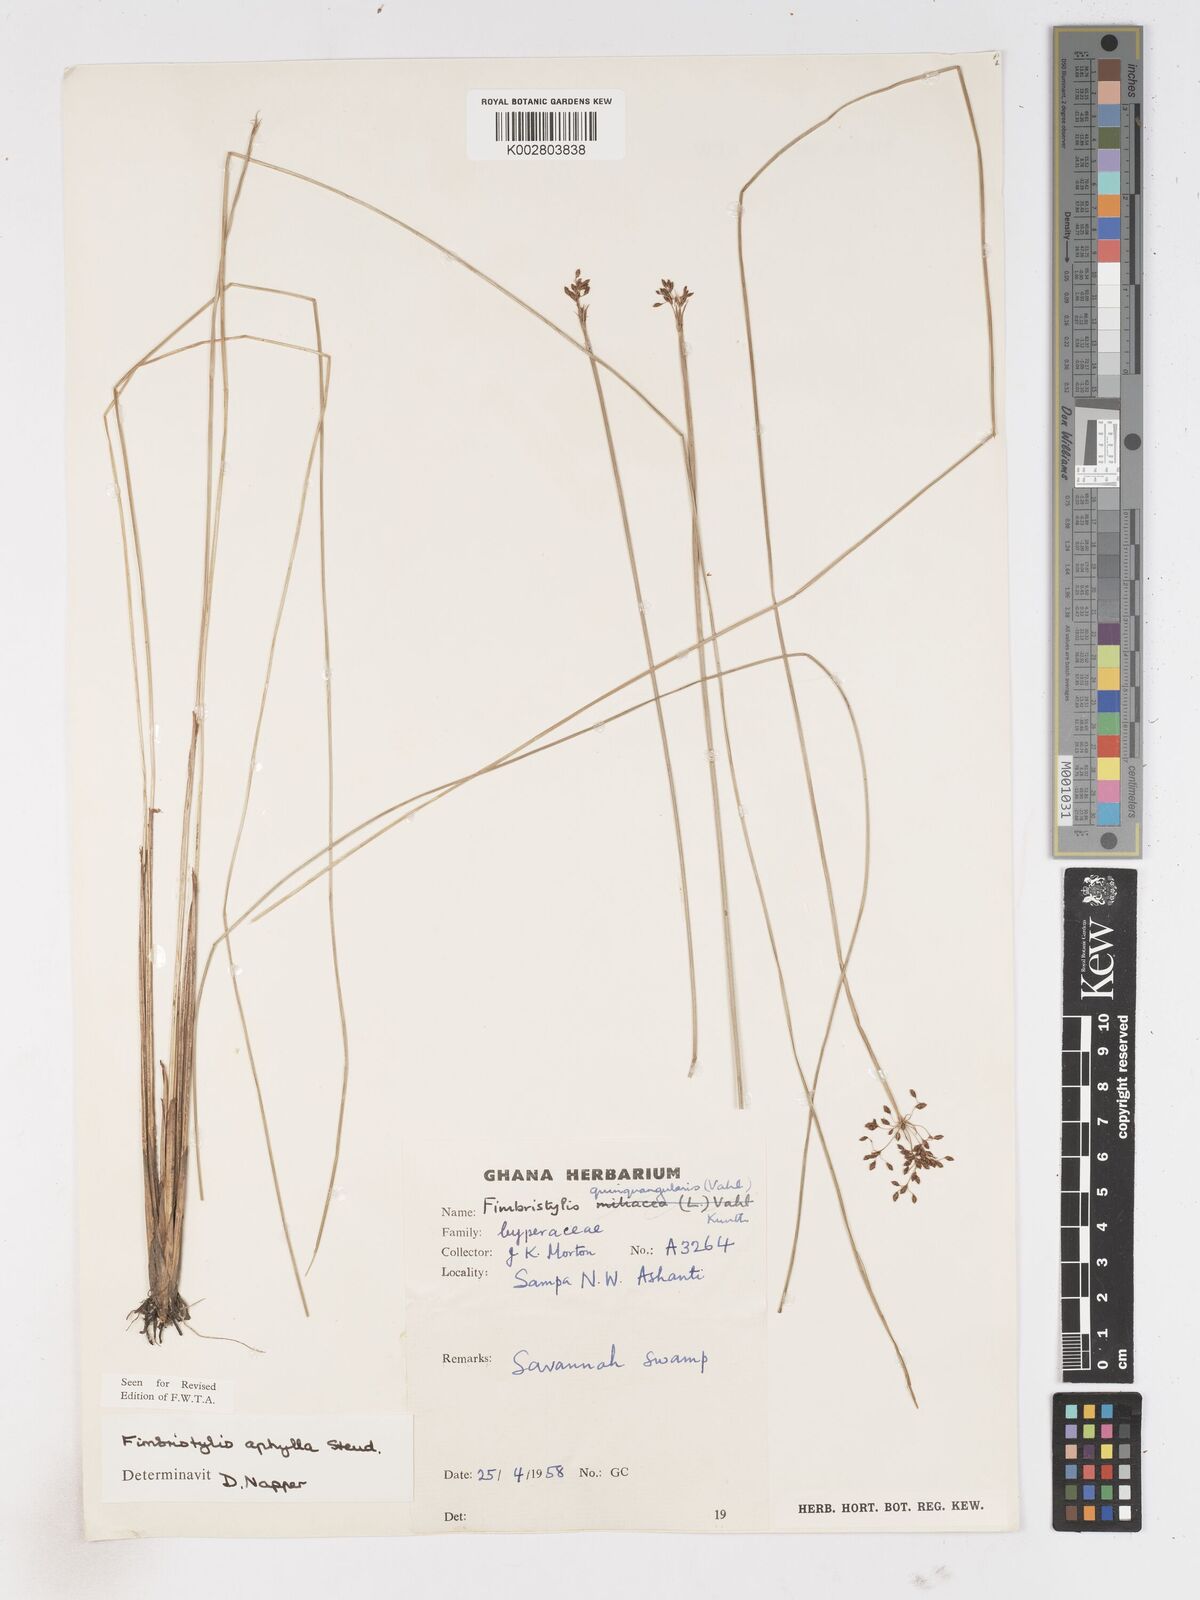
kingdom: Plantae
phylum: Tracheophyta
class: Liliopsida
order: Poales
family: Cyperaceae
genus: Fimbristylis
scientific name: Fimbristylis aphylla
